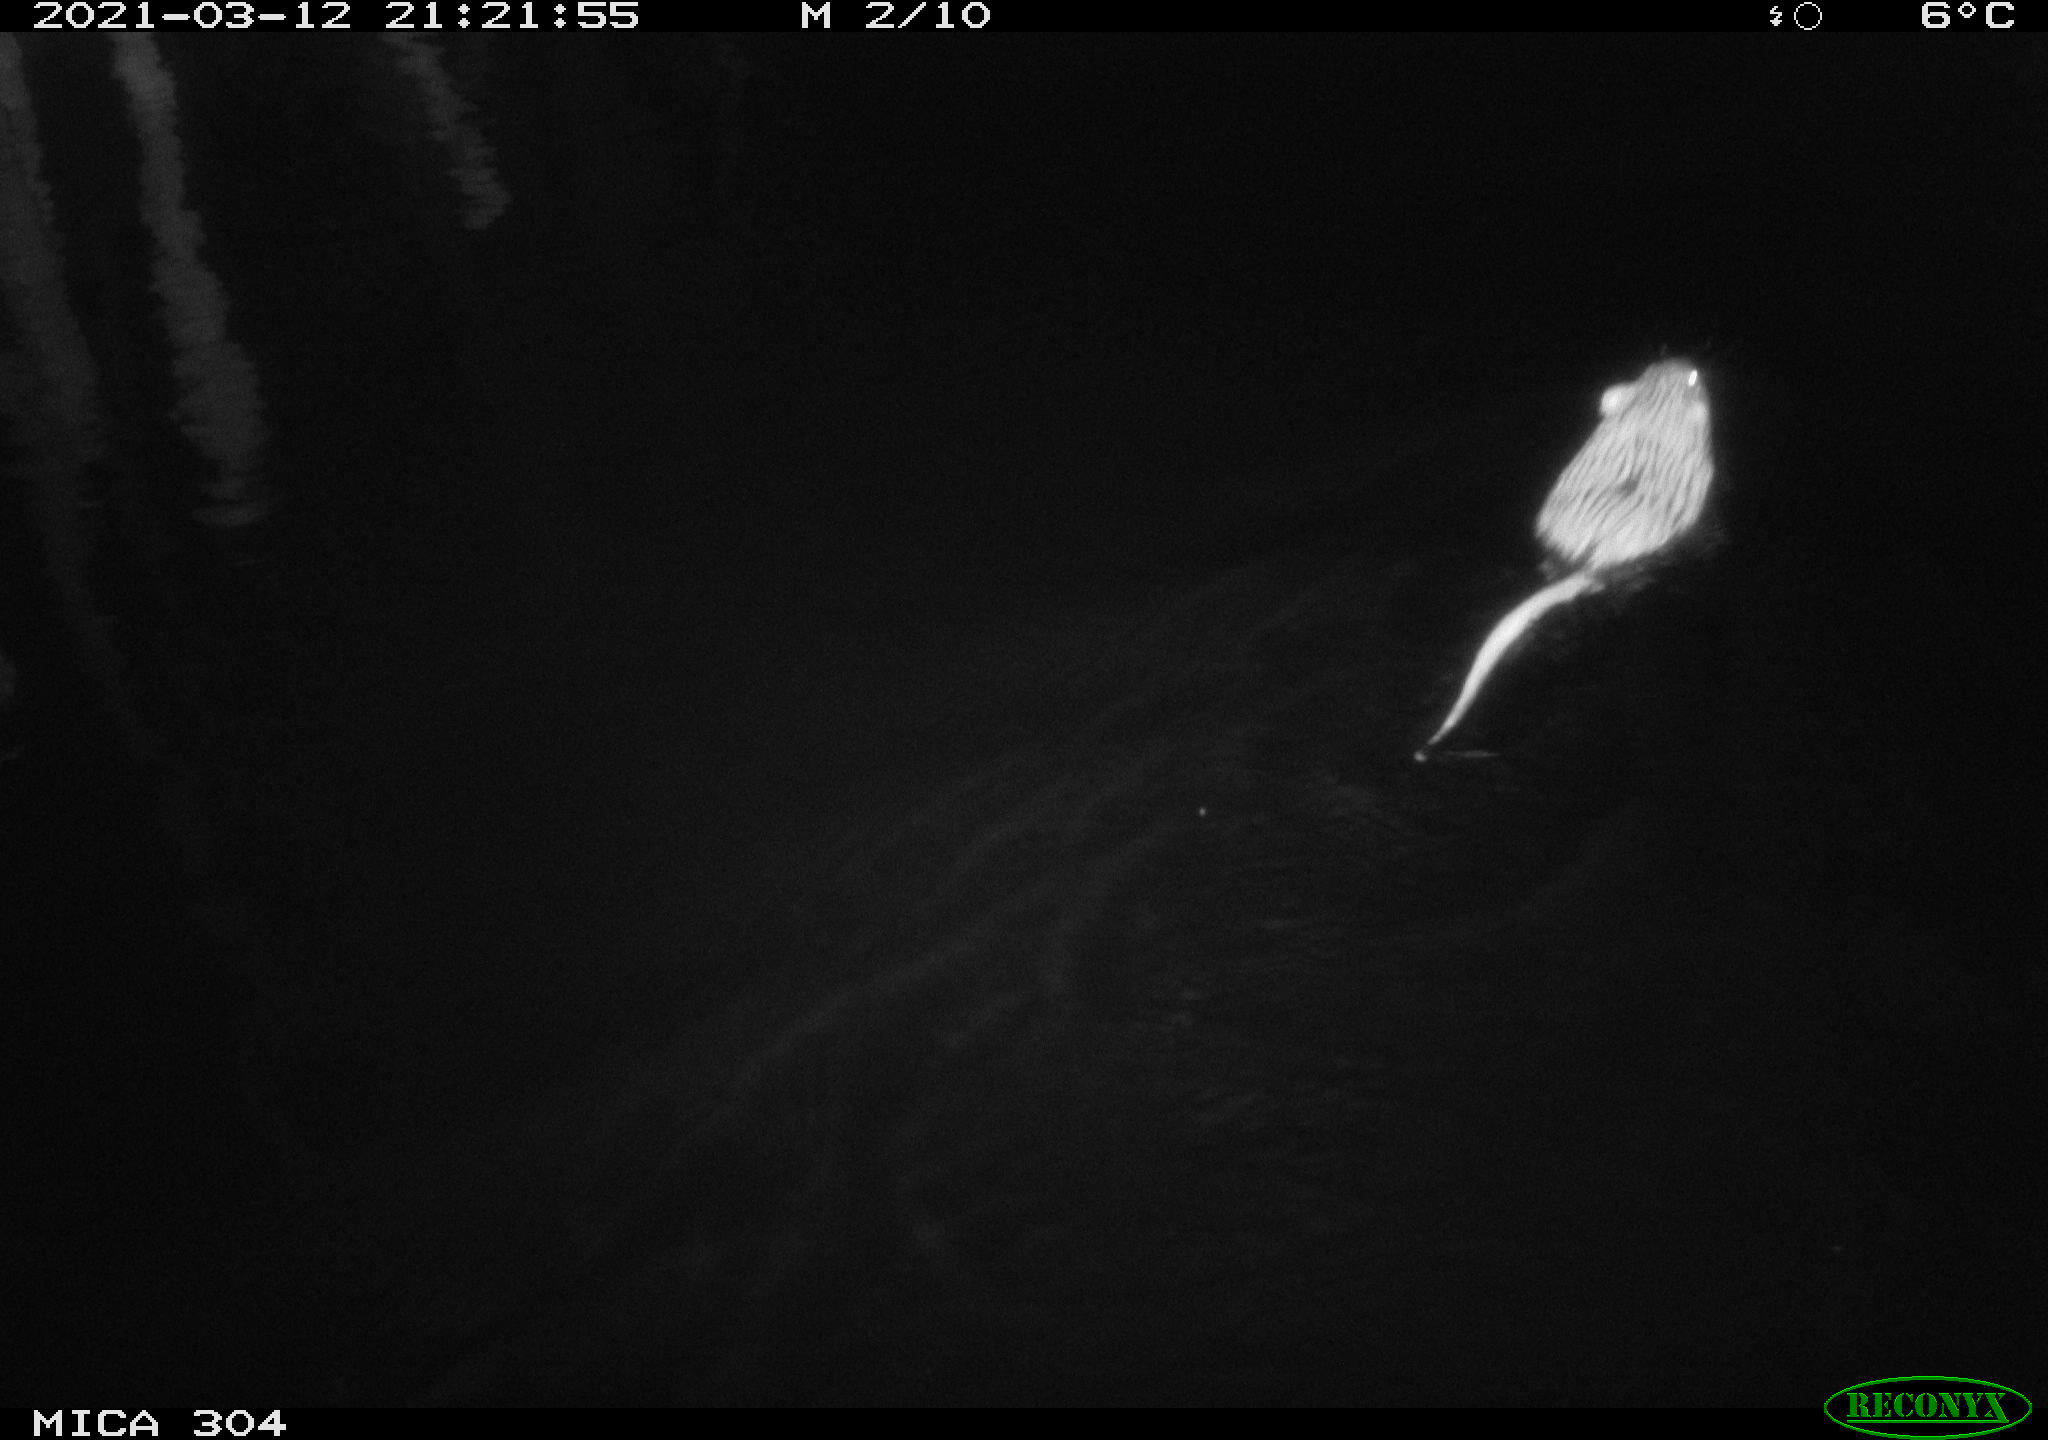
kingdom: Animalia
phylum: Chordata
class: Mammalia
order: Rodentia
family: Cricetidae
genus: Ondatra
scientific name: Ondatra zibethicus
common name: Muskrat
